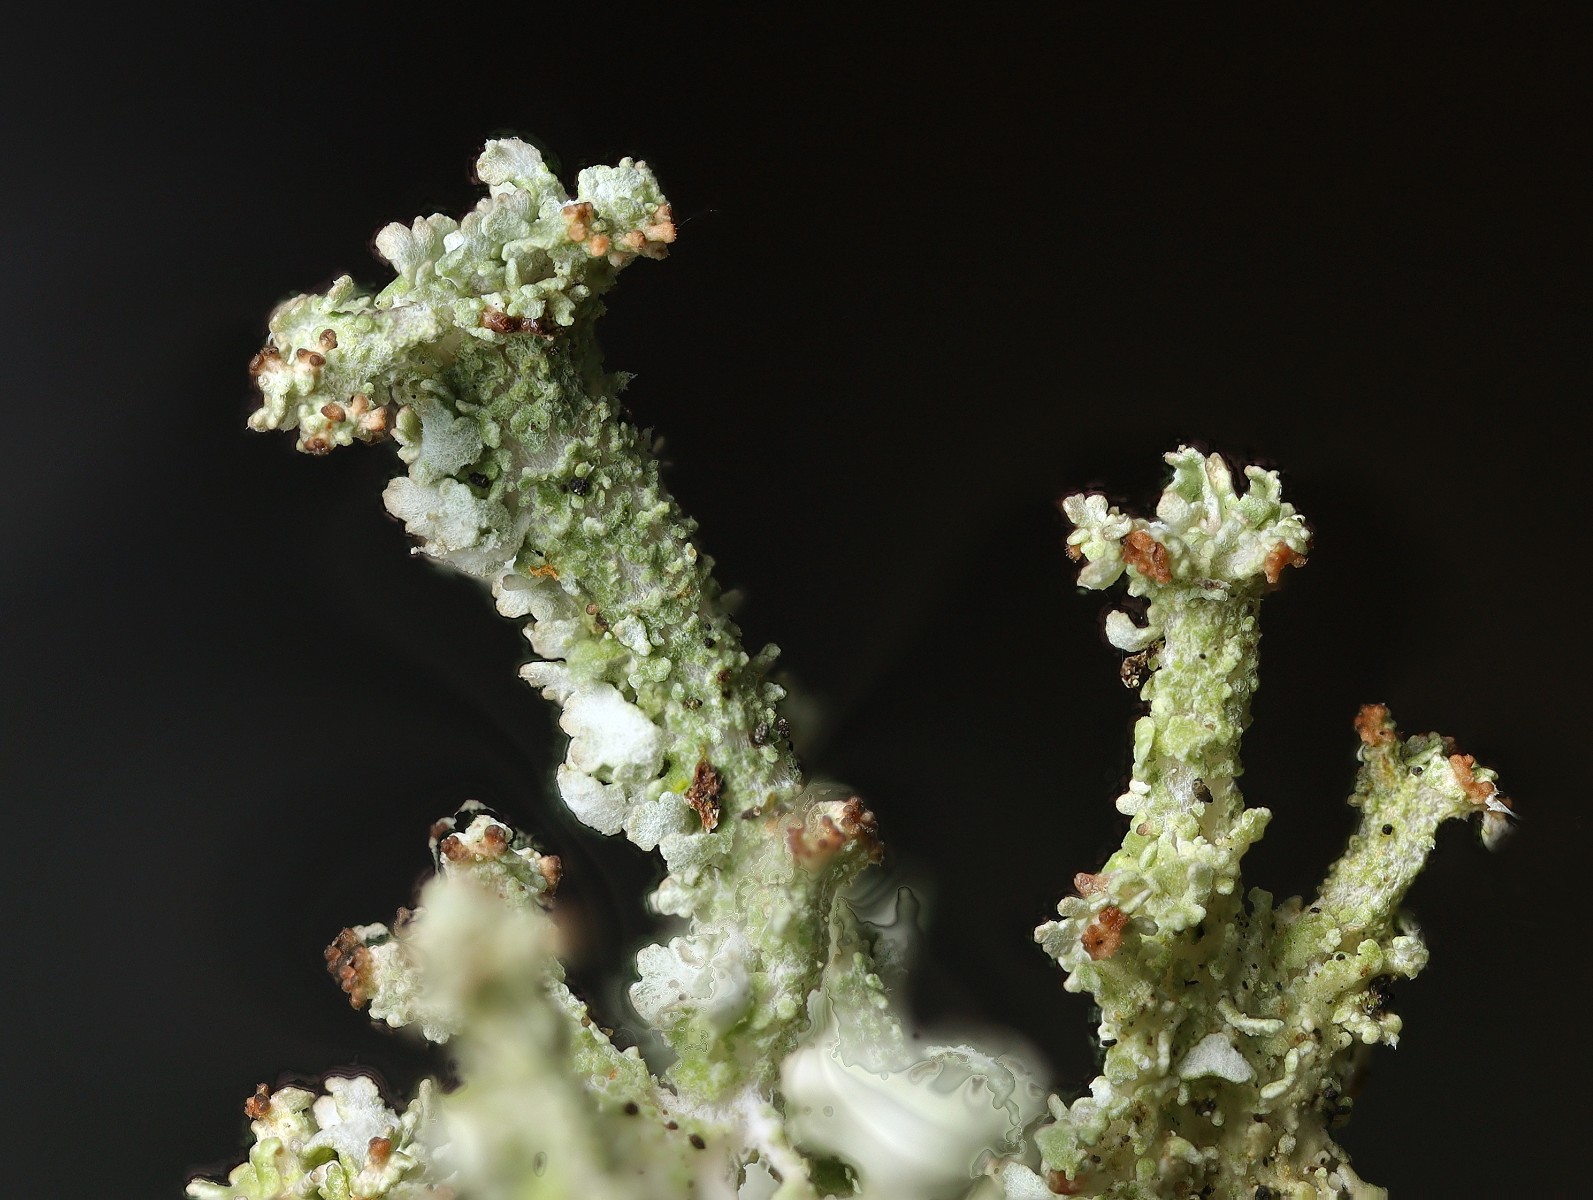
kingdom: Fungi
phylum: Ascomycota
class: Lecanoromycetes
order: Lecanorales
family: Cladoniaceae
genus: Cladonia
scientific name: Cladonia squamosa
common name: skælklædt bægerlav
